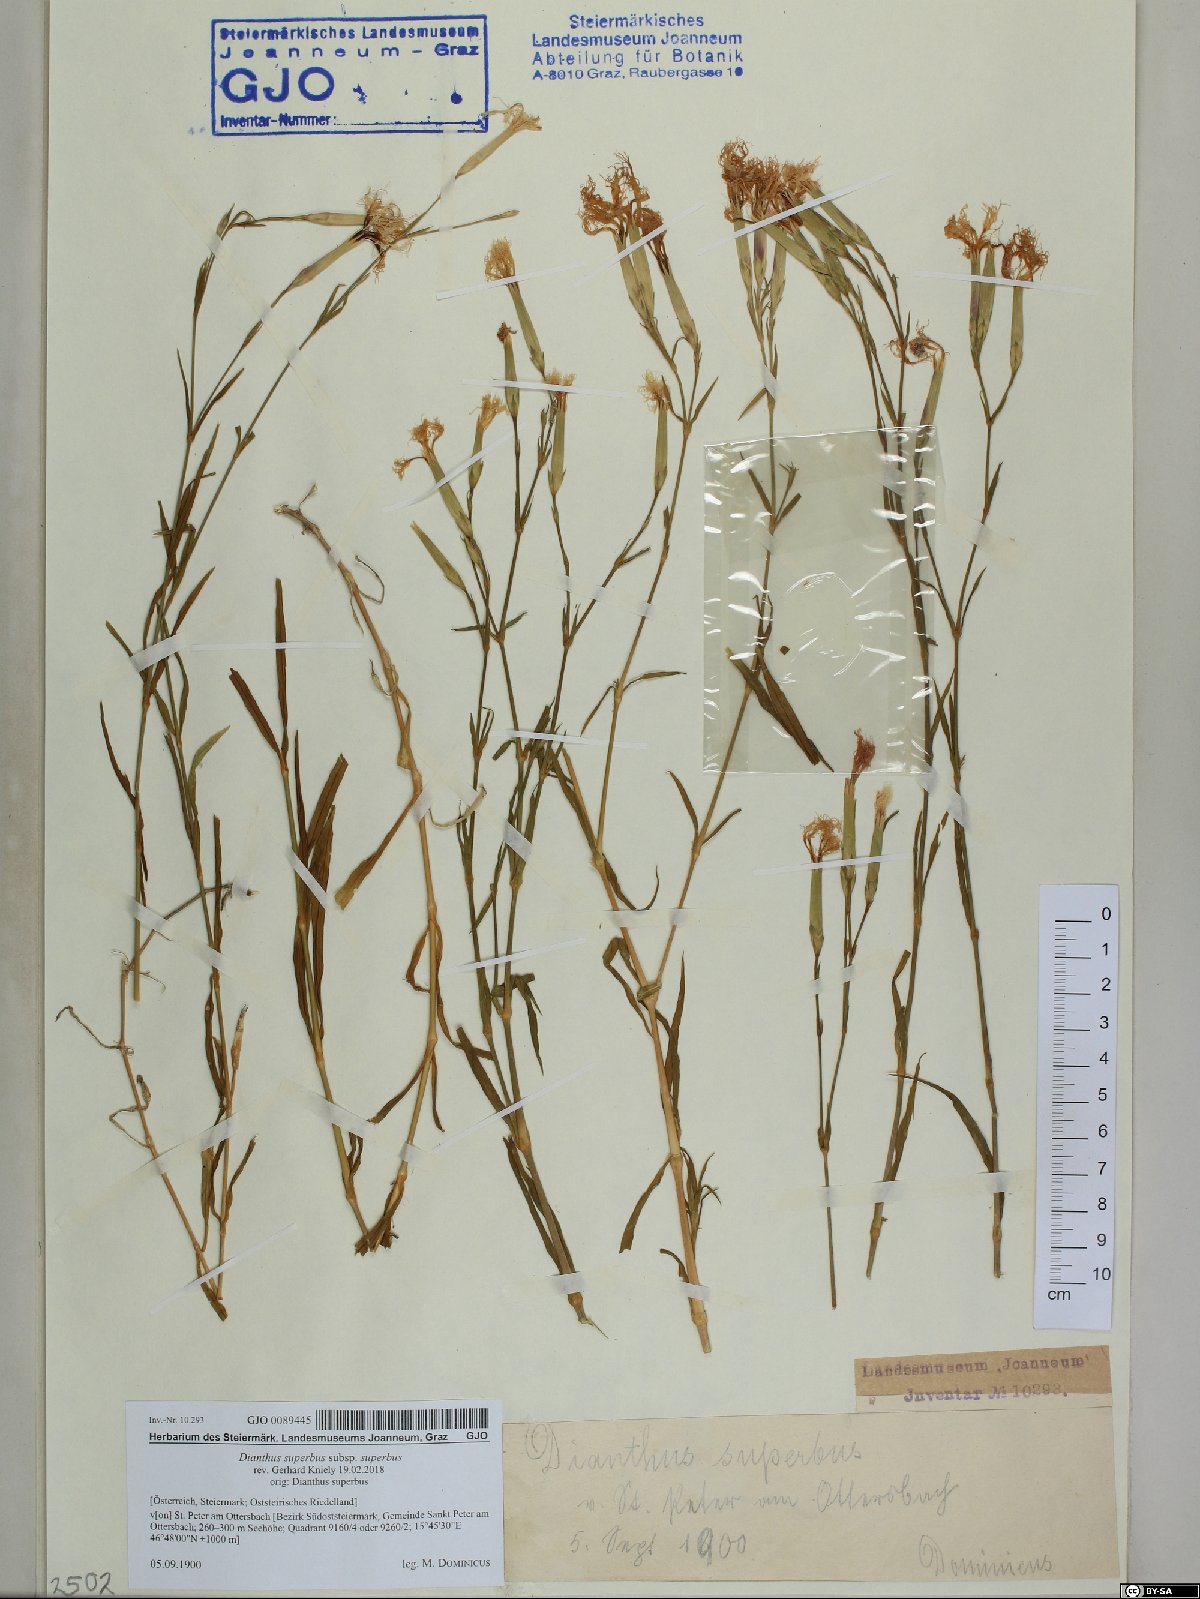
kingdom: Plantae
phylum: Tracheophyta
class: Magnoliopsida
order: Caryophyllales
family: Caryophyllaceae
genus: Dianthus
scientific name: Dianthus superbus
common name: Fringed pink
